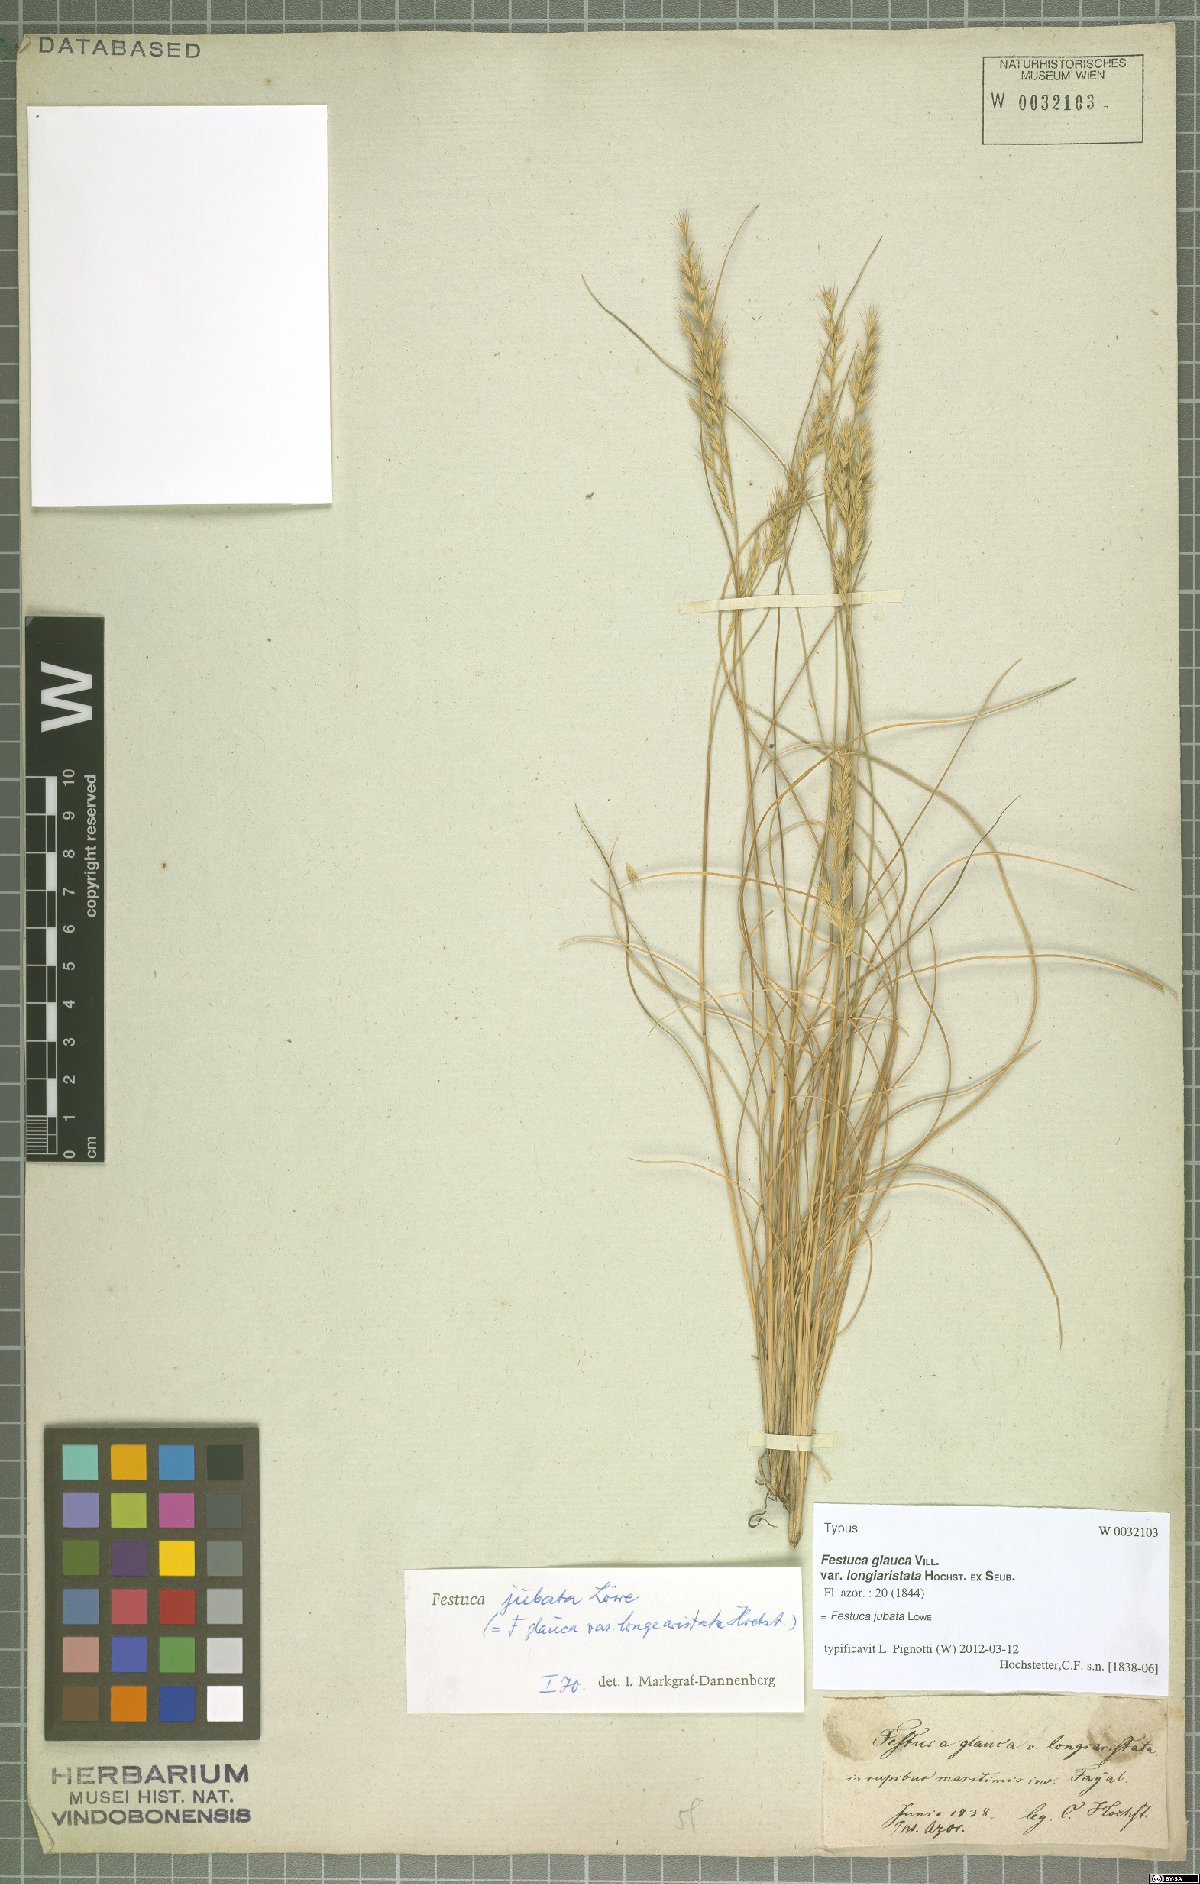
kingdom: Plantae
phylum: Tracheophyta
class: Liliopsida
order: Poales
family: Poaceae
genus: Festuca
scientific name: Festuca jubata
